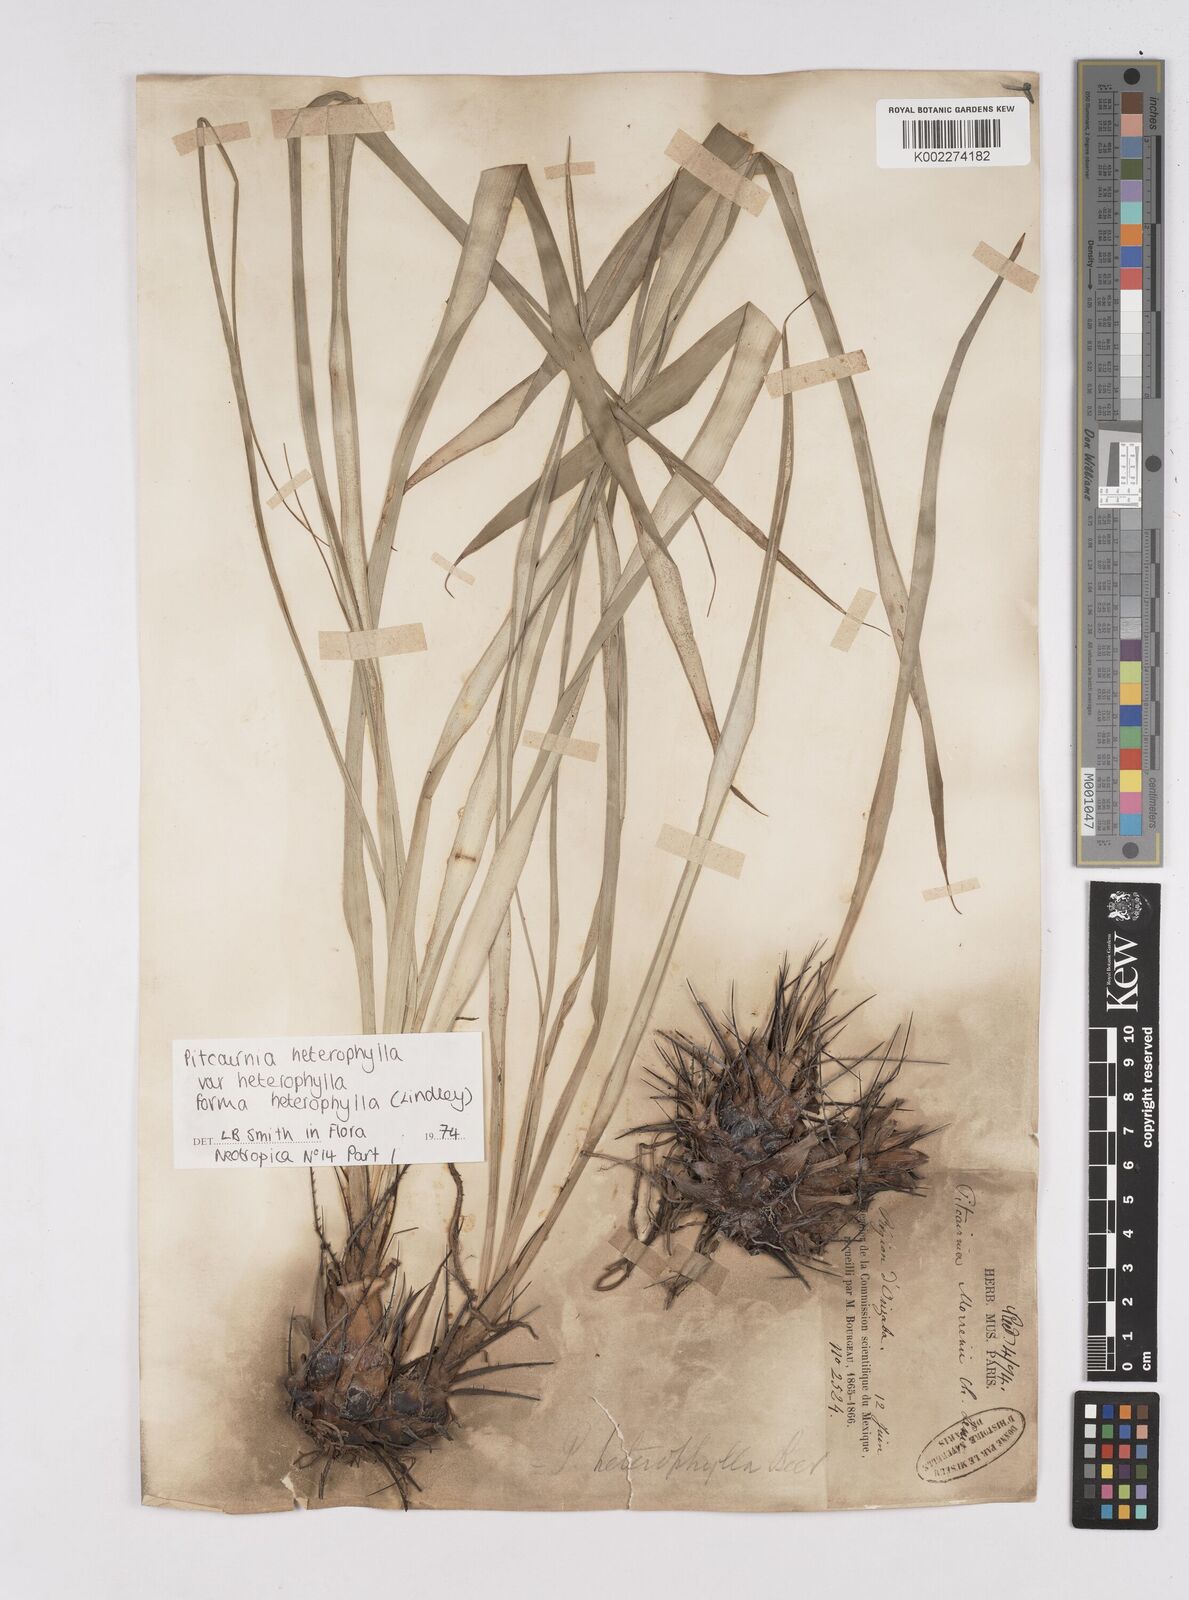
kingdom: Plantae
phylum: Tracheophyta
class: Liliopsida
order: Poales
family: Bromeliaceae
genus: Pitcairnia
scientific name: Pitcairnia heterophylla
